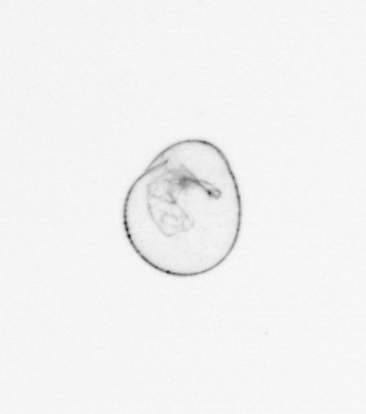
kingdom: Chromista
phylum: Myzozoa
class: Dinophyceae
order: Noctilucales
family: Noctilucaceae
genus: Noctiluca
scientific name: Noctiluca scintillans
